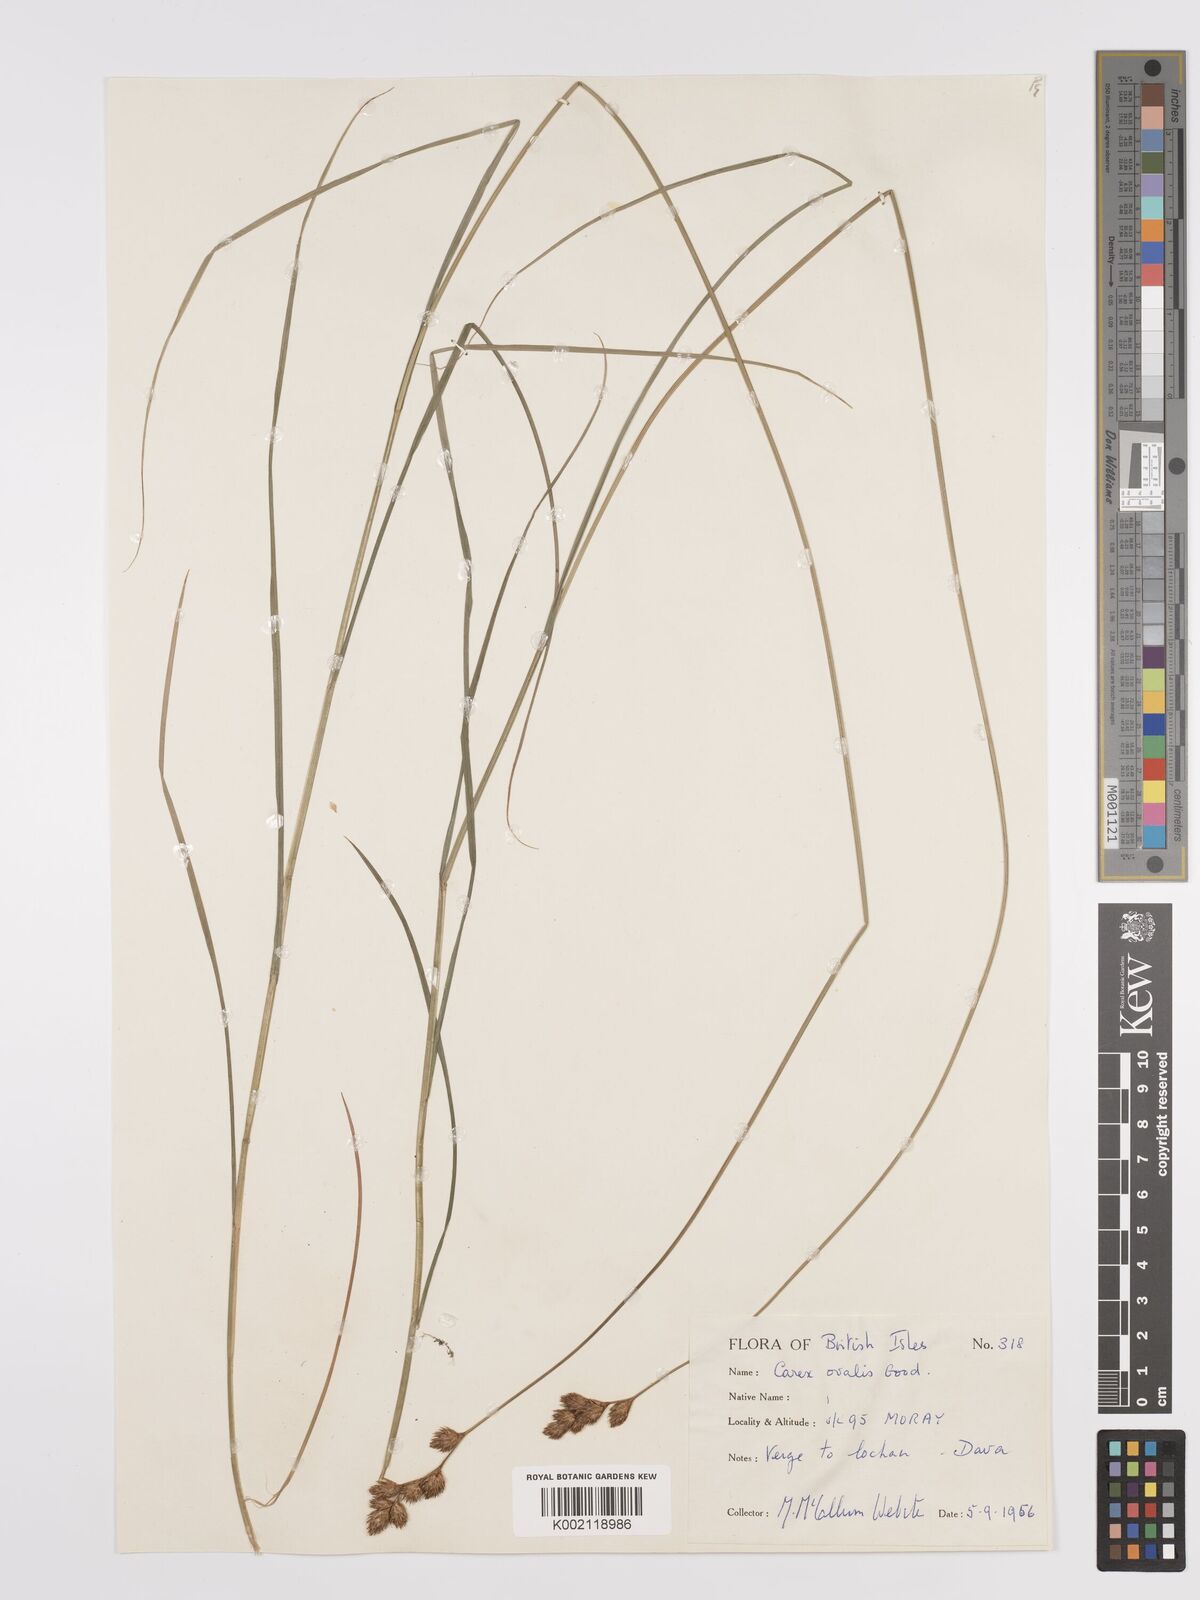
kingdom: Plantae
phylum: Tracheophyta
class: Liliopsida
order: Poales
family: Cyperaceae
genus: Carex
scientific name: Carex leporina
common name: Oval sedge
